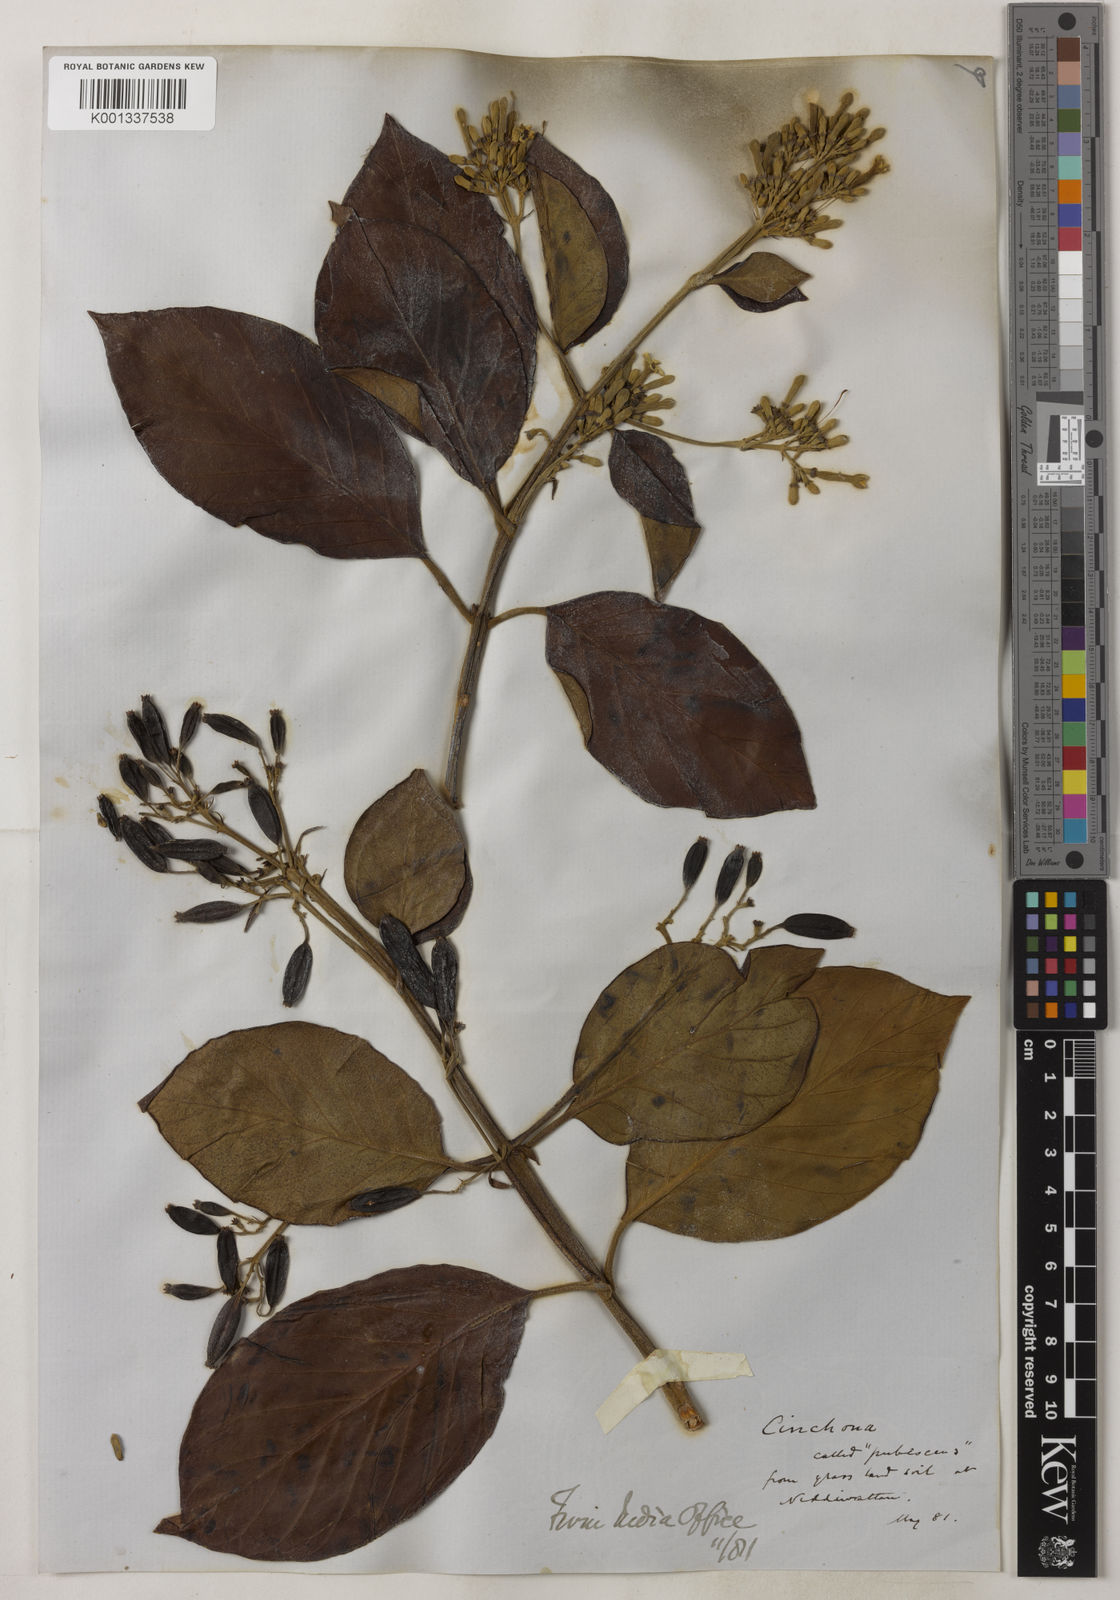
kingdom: Plantae
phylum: Tracheophyta
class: Magnoliopsida
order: Gentianales
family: Rubiaceae
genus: Cinchona
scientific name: Cinchona calisaya
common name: Ledgerbark
